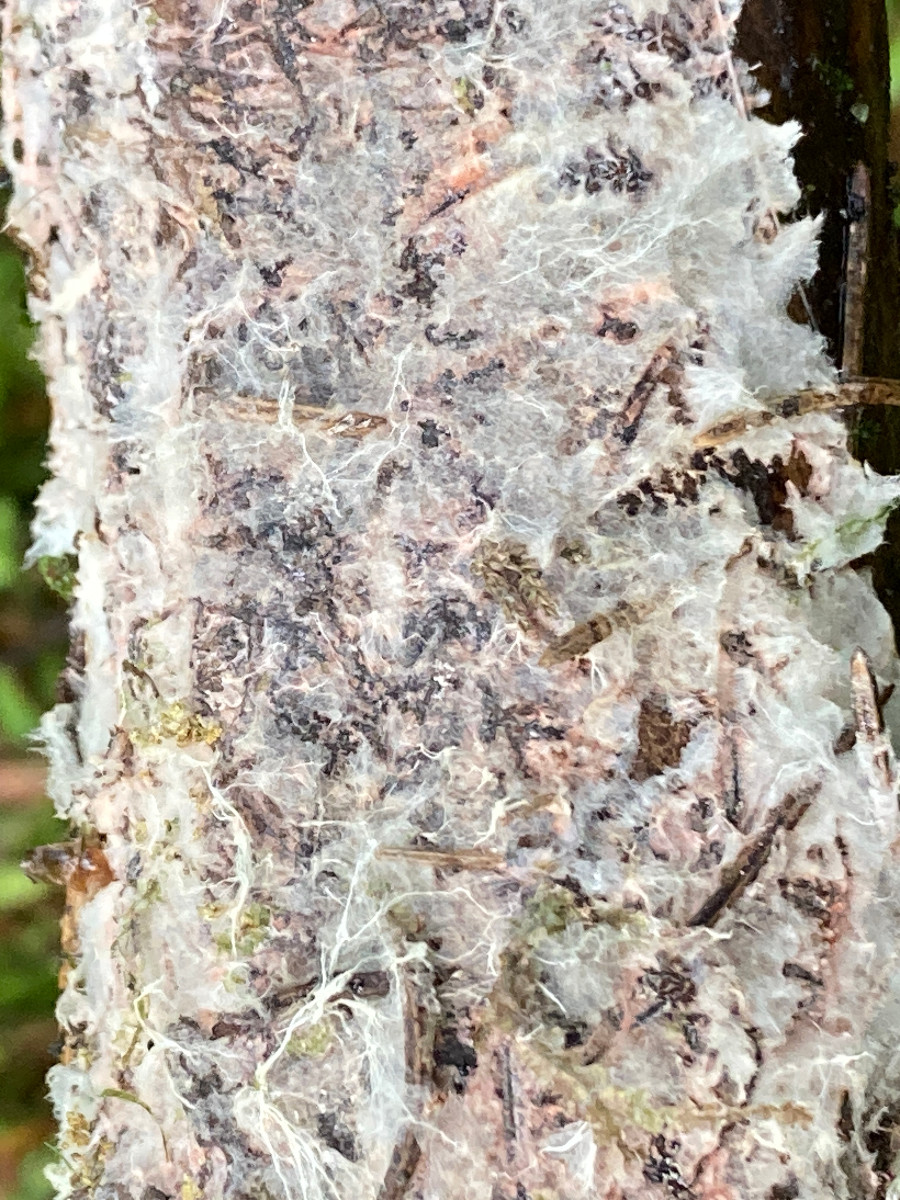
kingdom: Fungi
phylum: Basidiomycota
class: Agaricomycetes
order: Corticiales
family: Corticiaceae
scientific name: Corticiaceae
